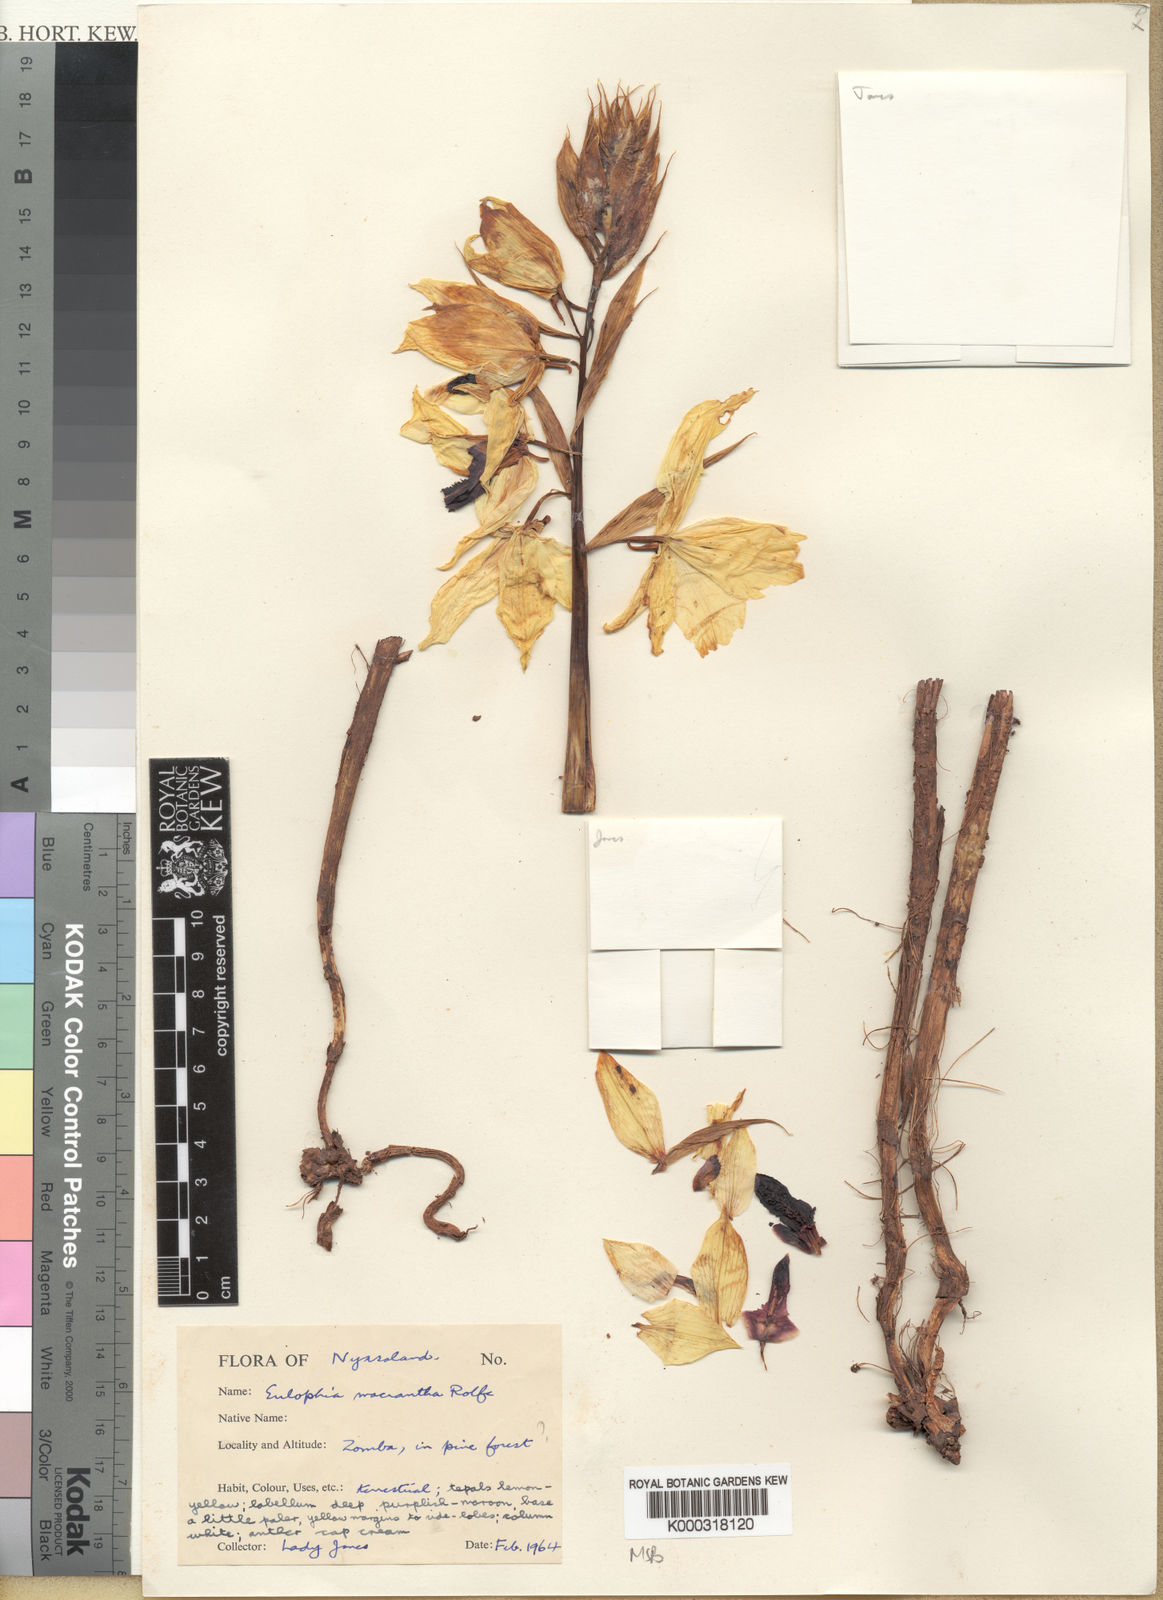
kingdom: Plantae
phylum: Tracheophyta
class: Liliopsida
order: Asparagales
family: Orchidaceae
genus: Eulophia
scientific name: Eulophia macrantha
